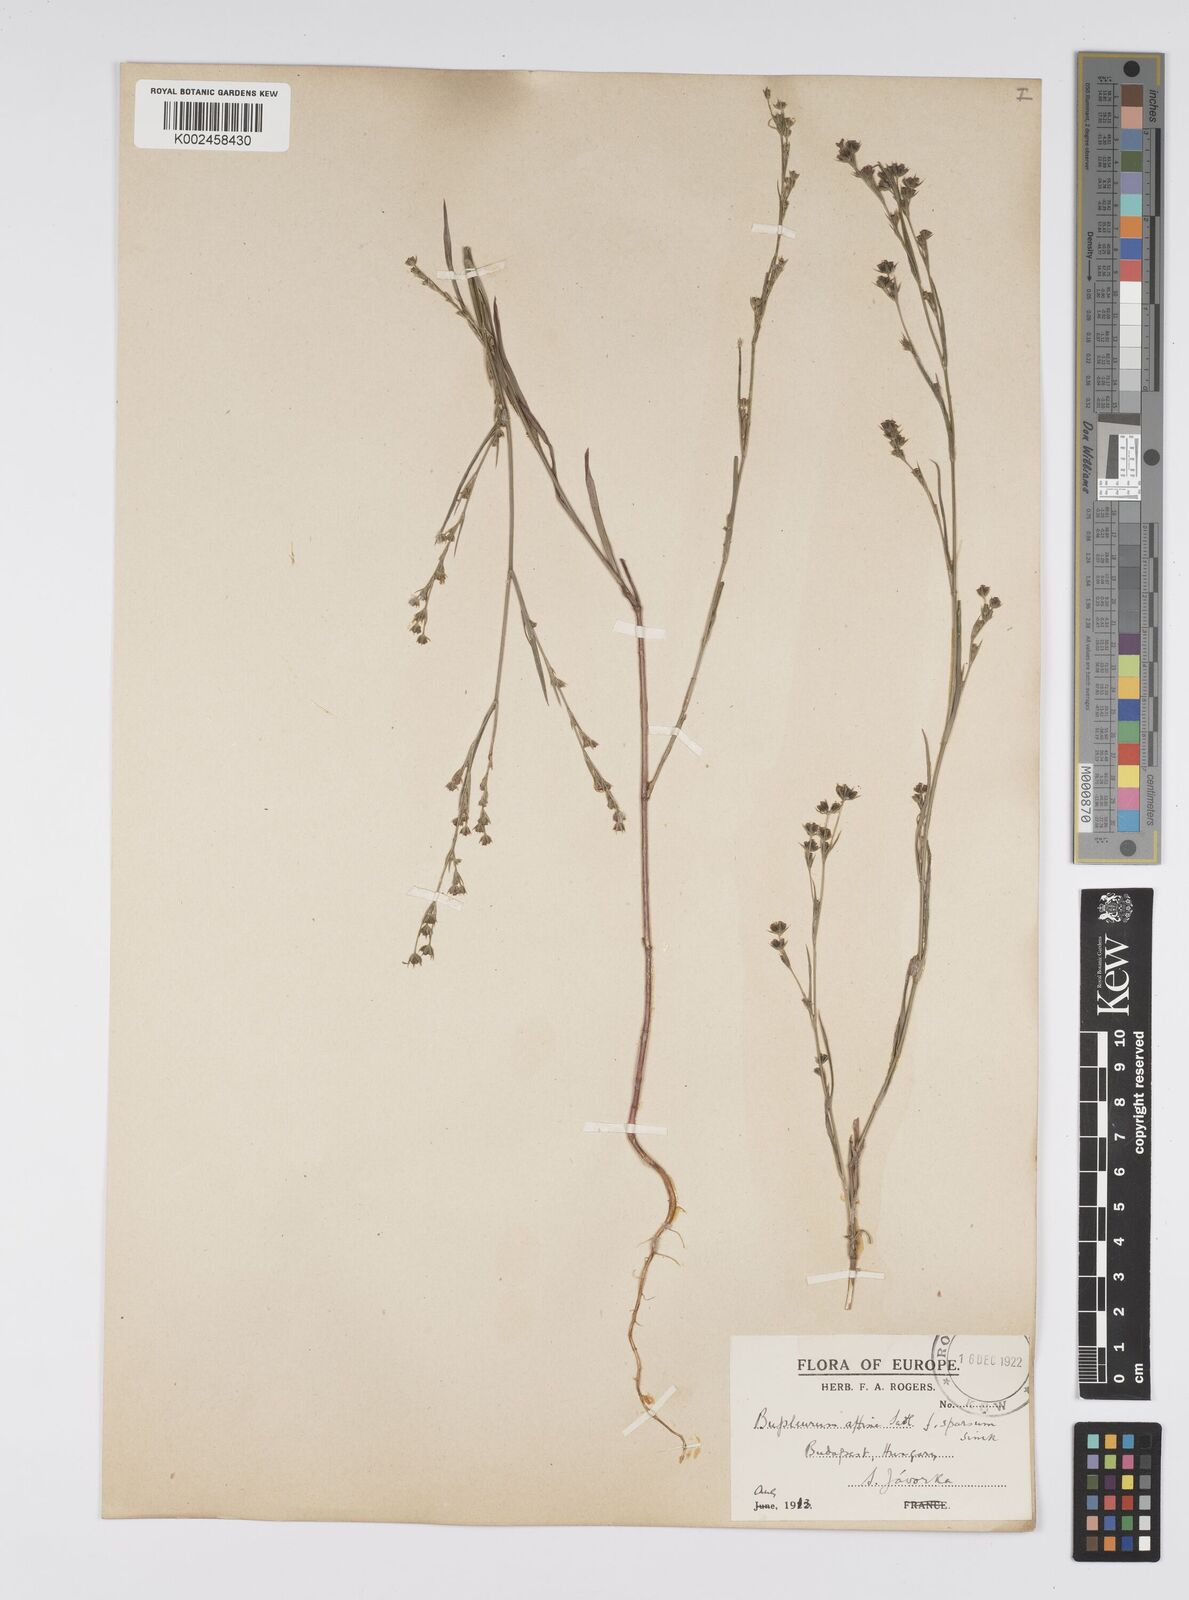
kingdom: Plantae
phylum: Tracheophyta
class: Magnoliopsida
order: Apiales
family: Apiaceae
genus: Bupleurum
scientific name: Bupleurum affine
